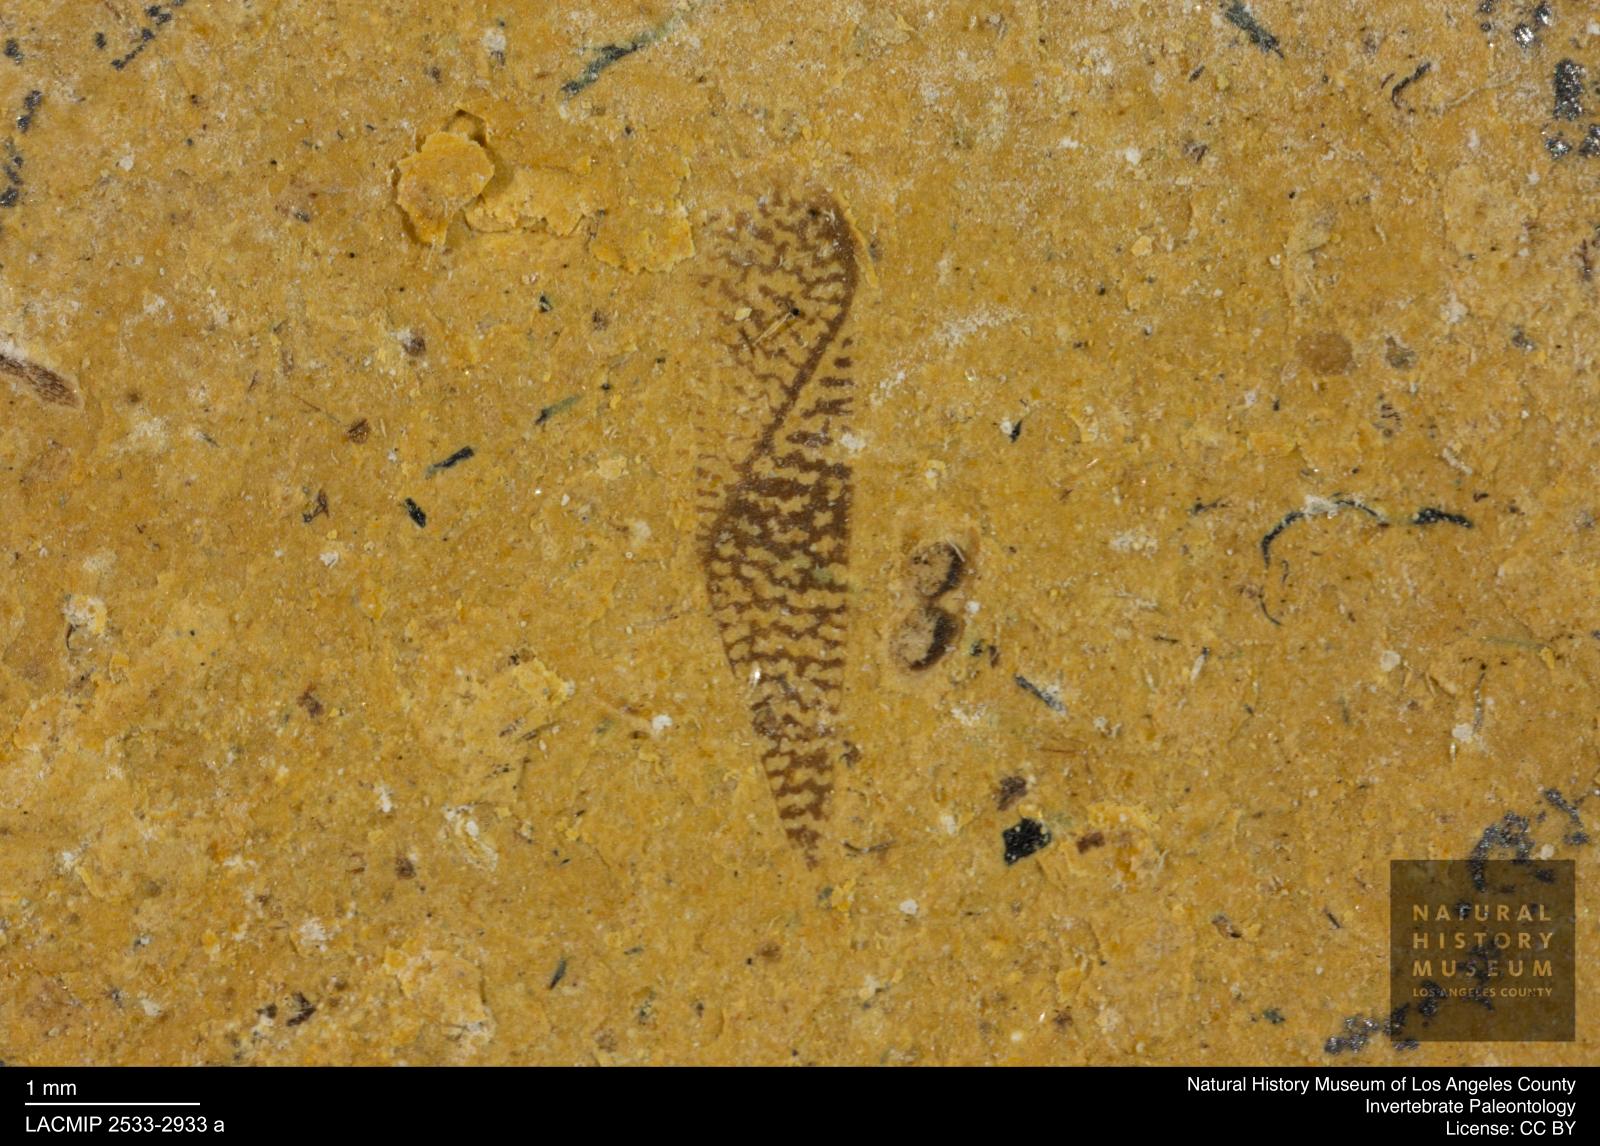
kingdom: Animalia
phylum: Arthropoda
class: Insecta
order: Hemiptera
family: Corixidae
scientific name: Corixidae
